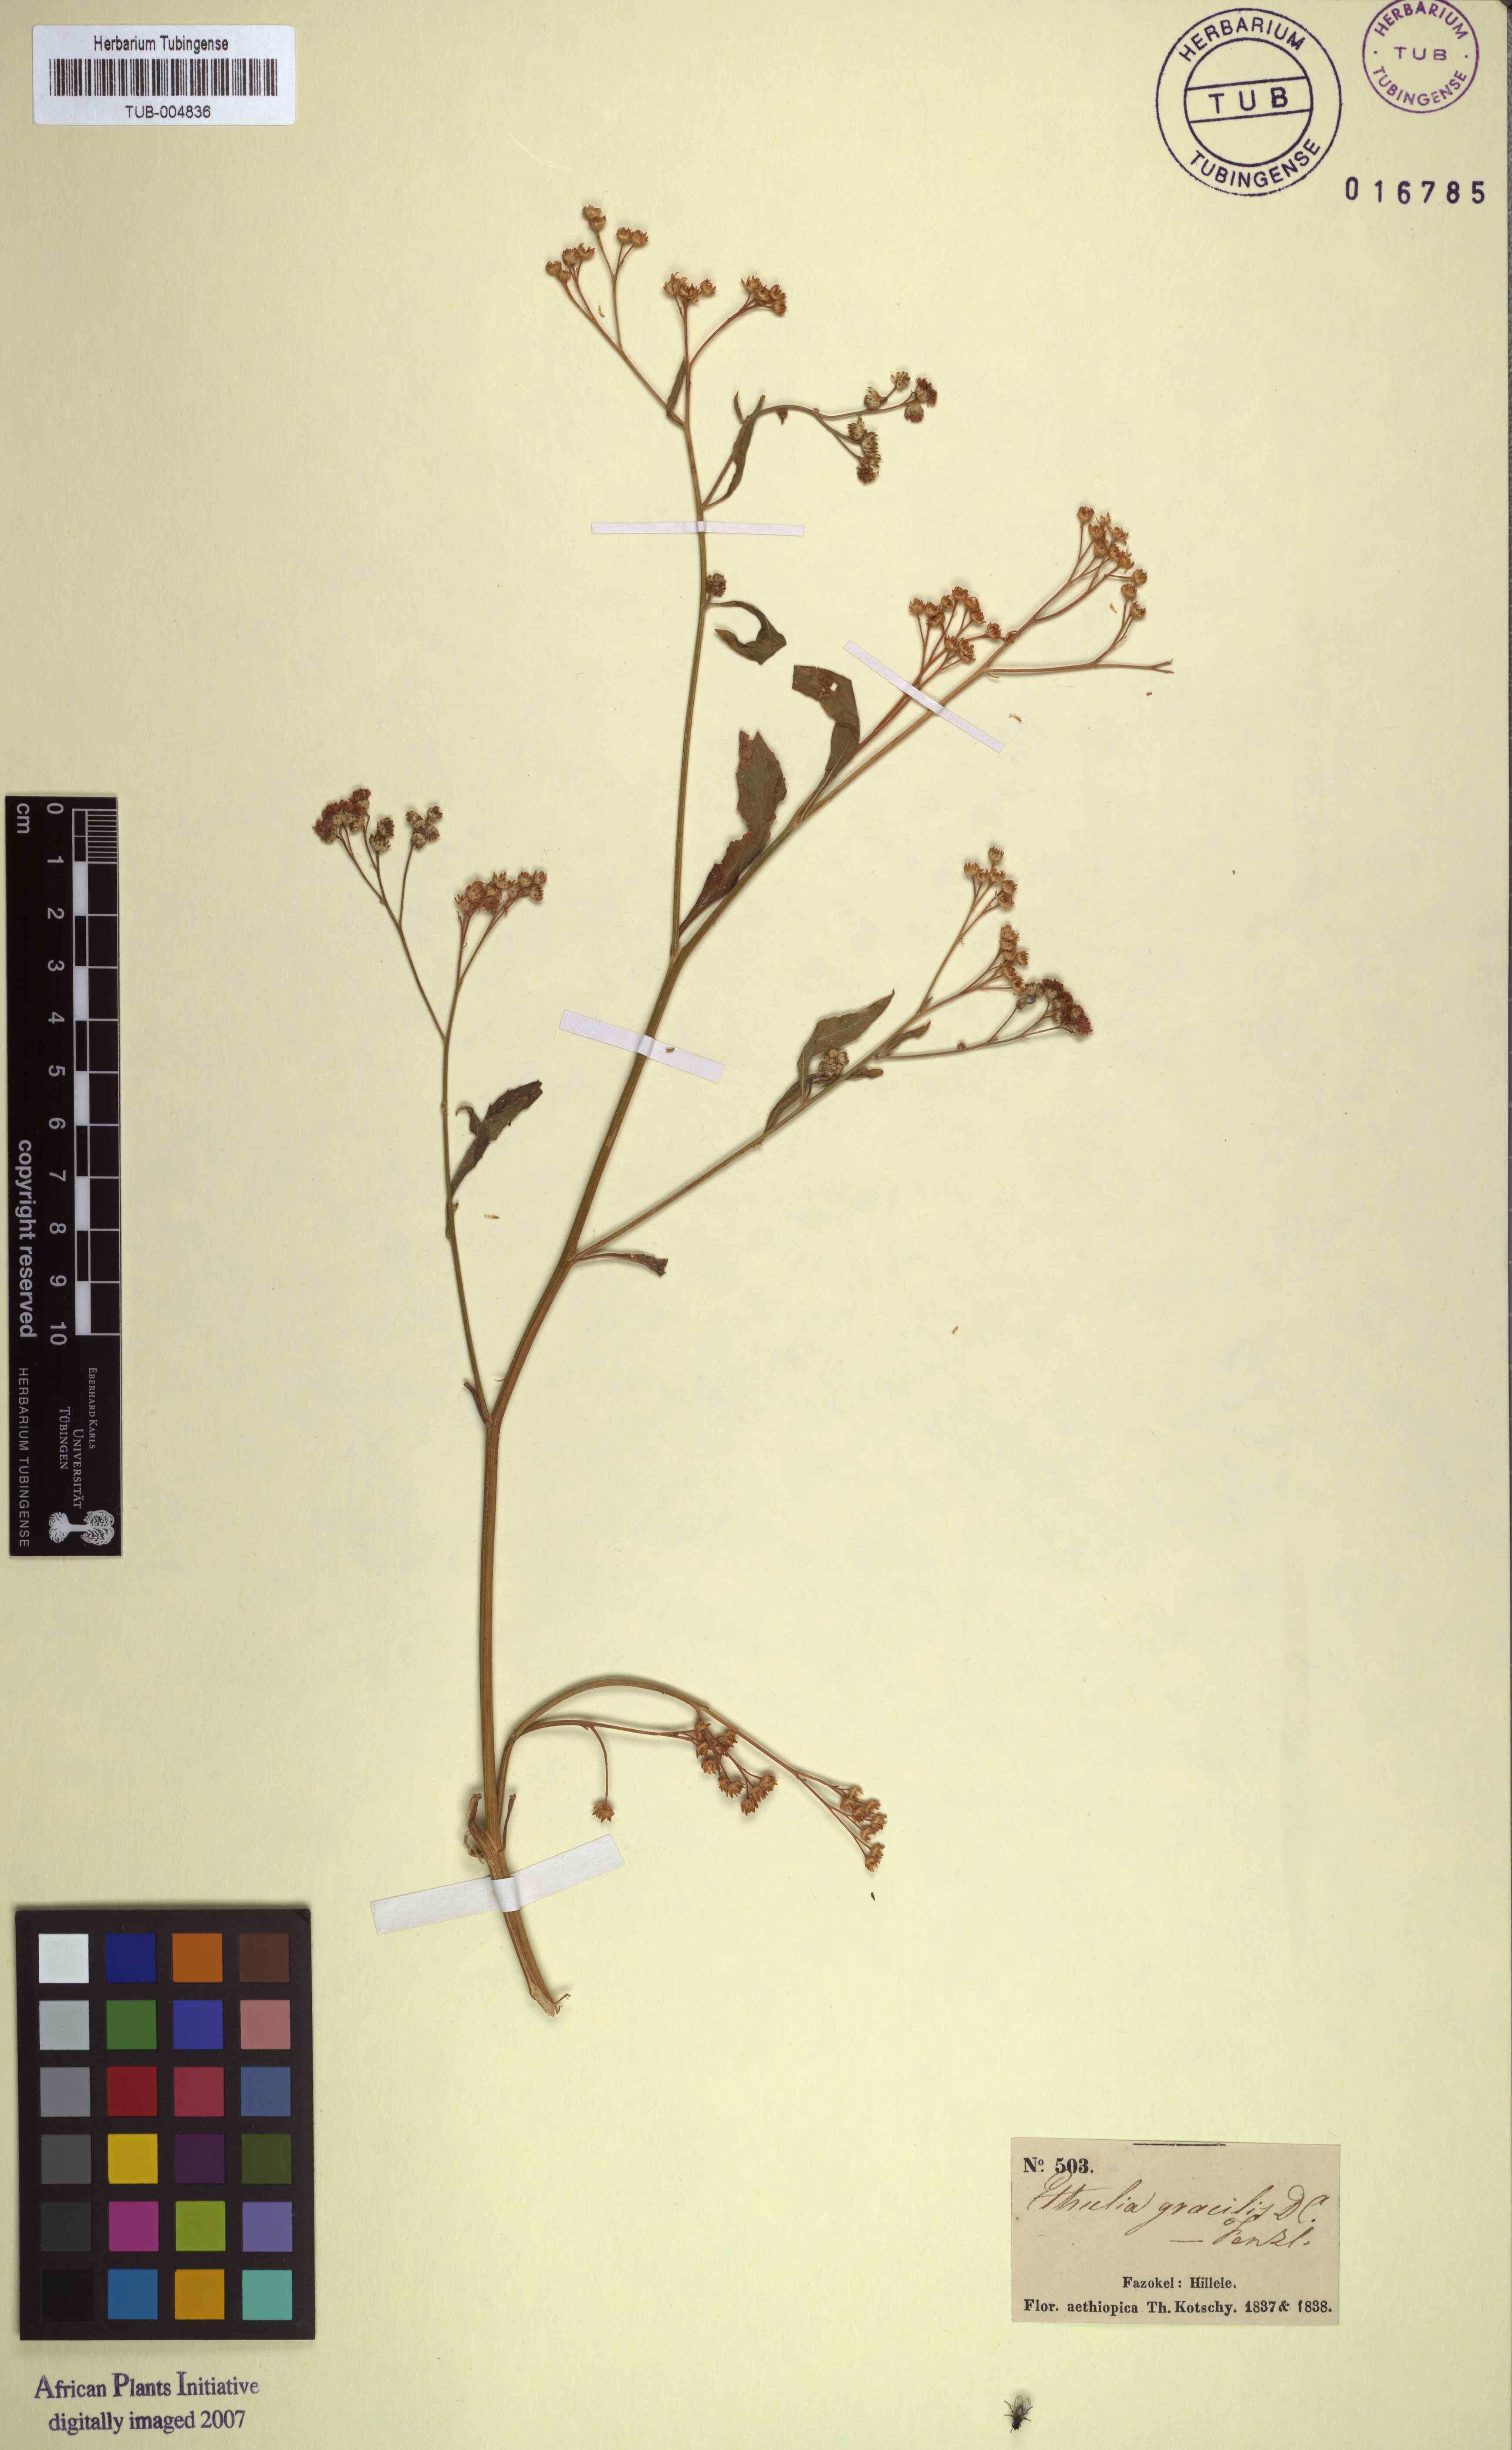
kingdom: Plantae
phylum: Tracheophyta
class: Magnoliopsida
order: Asterales
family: Asteraceae
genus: Ethulia
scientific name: Ethulia conyzoides
